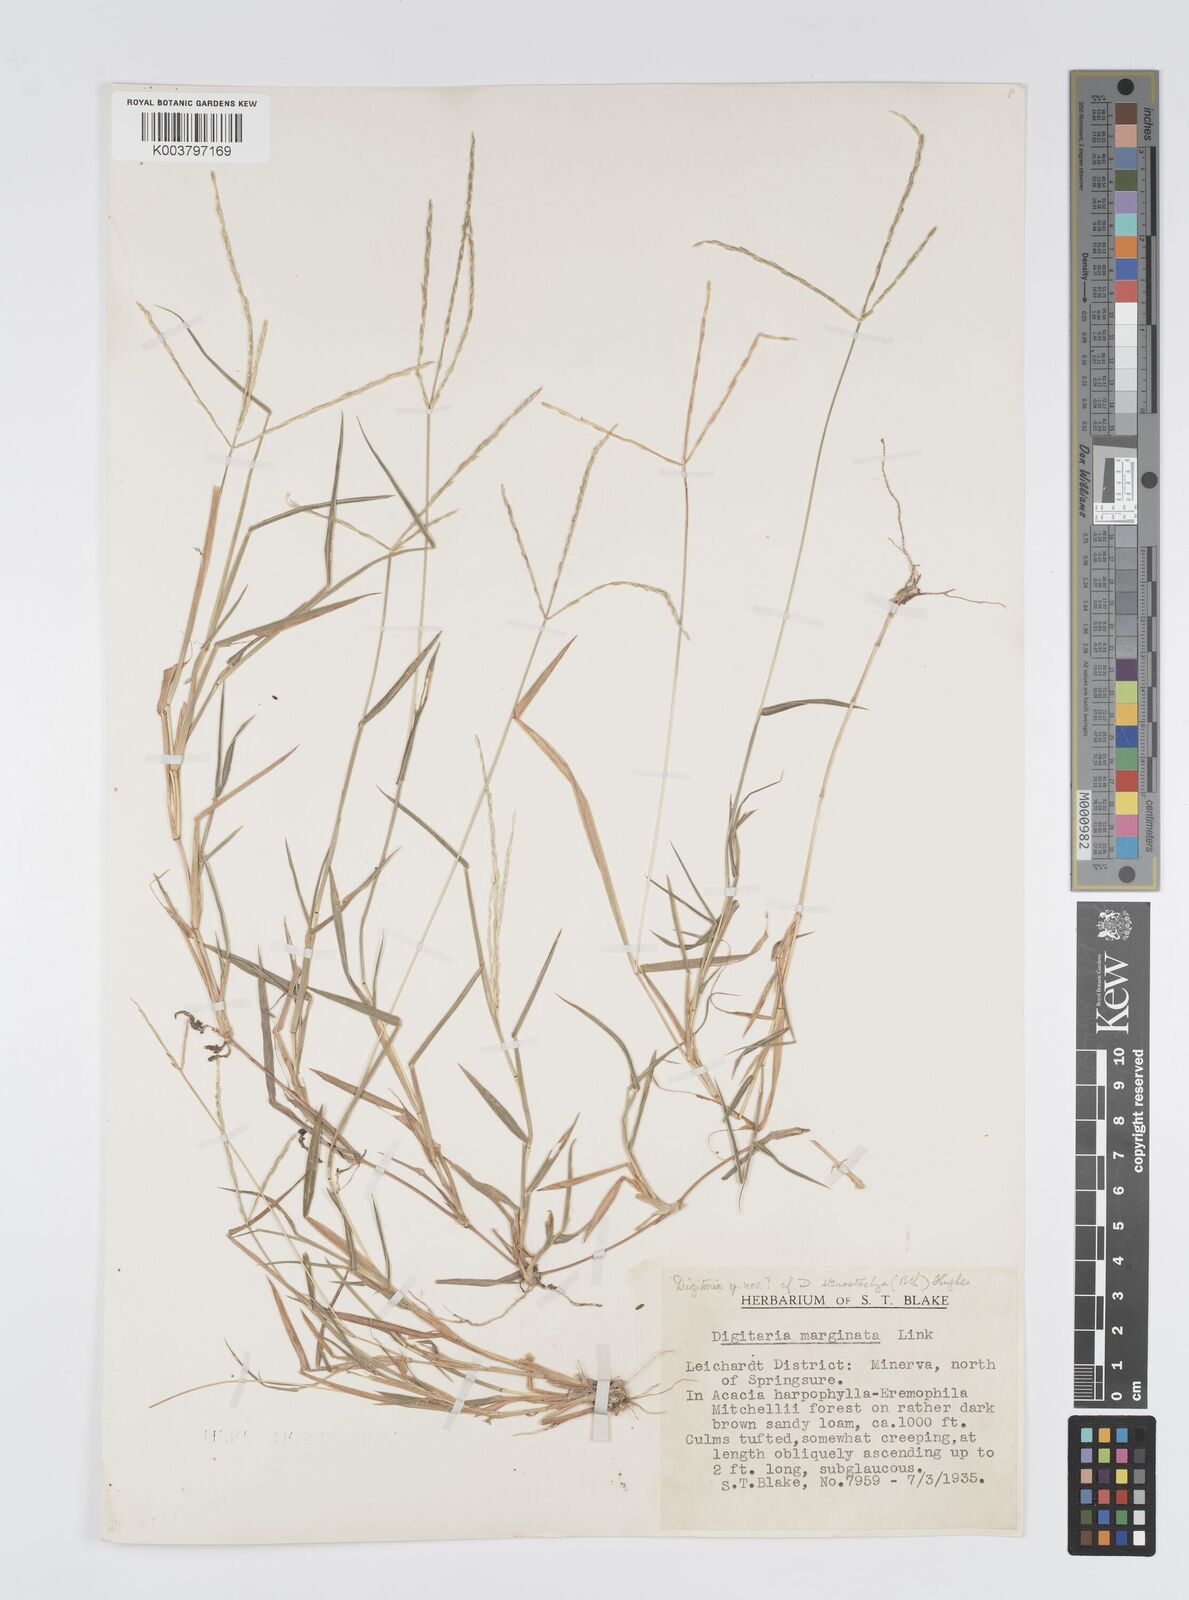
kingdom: Plantae
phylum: Tracheophyta
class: Liliopsida
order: Poales
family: Poaceae
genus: Digitaria
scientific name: Digitaria spec
